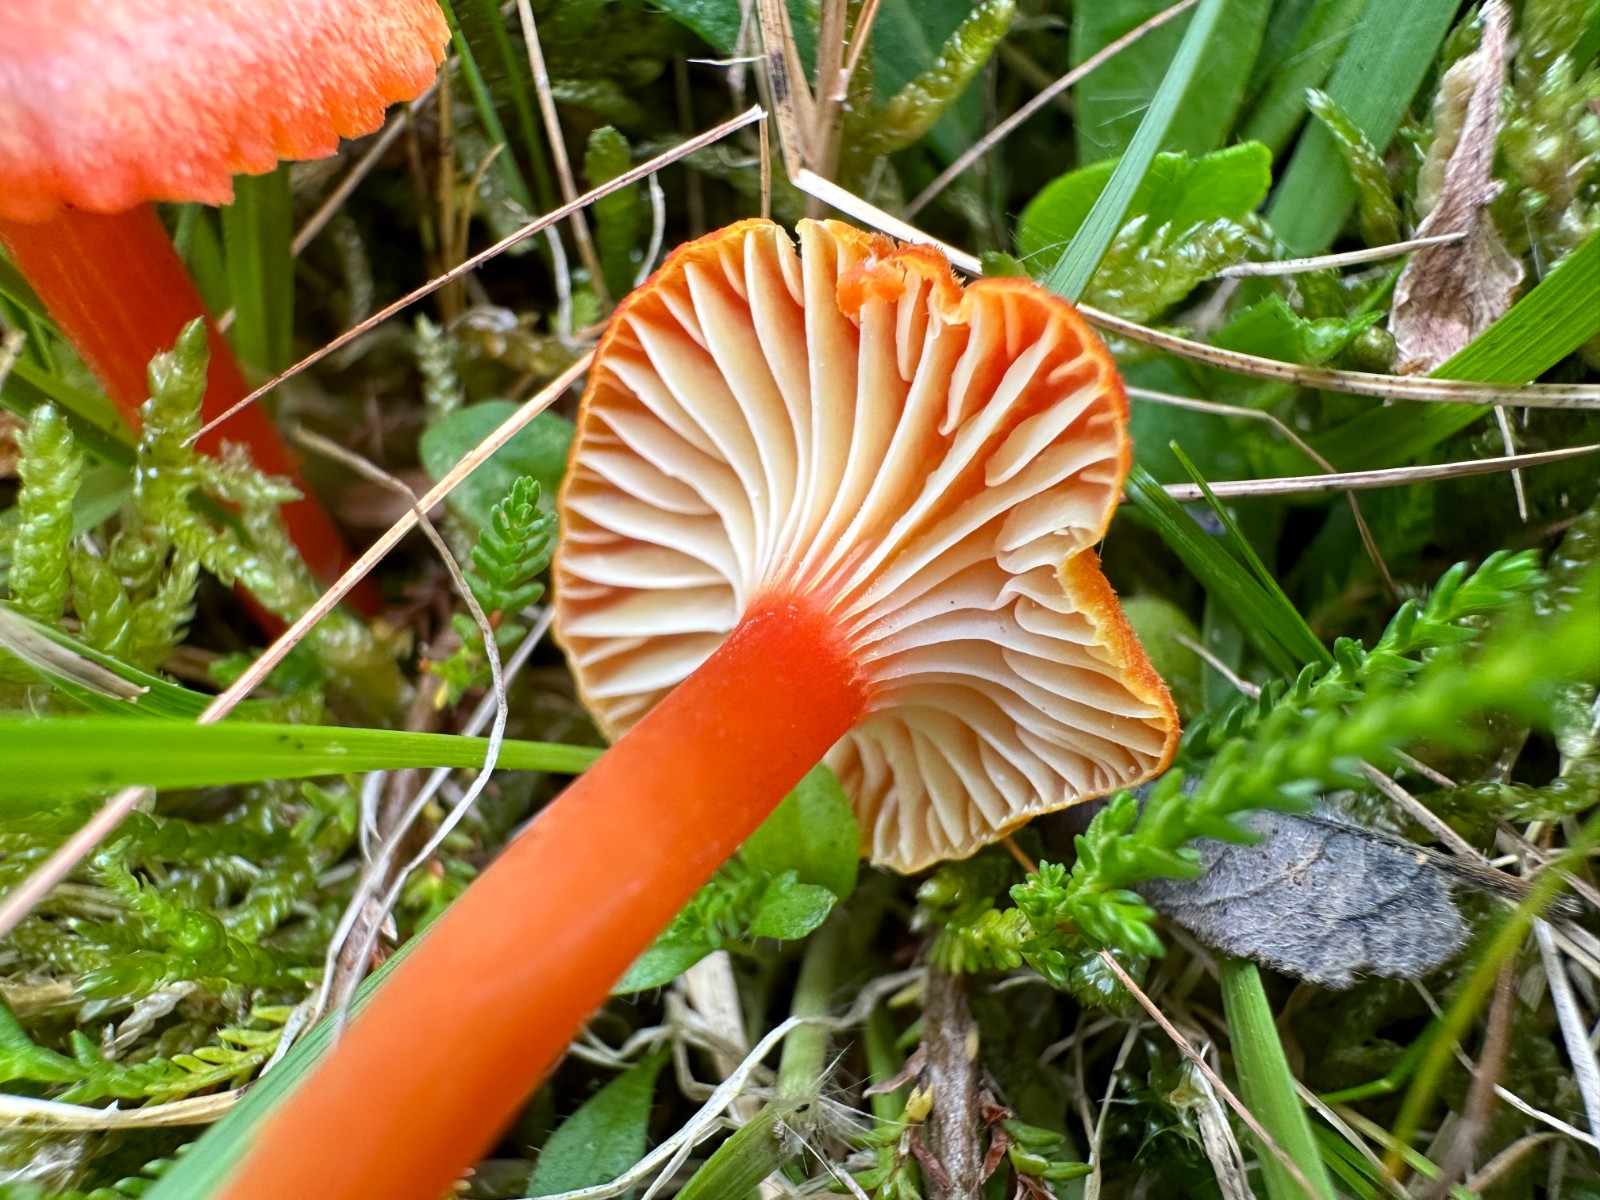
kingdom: Fungi
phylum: Basidiomycota
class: Agaricomycetes
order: Agaricales
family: Hygrophoraceae
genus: Hygrocybe
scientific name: Hygrocybe cantharellus
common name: kantarel-vokshat
